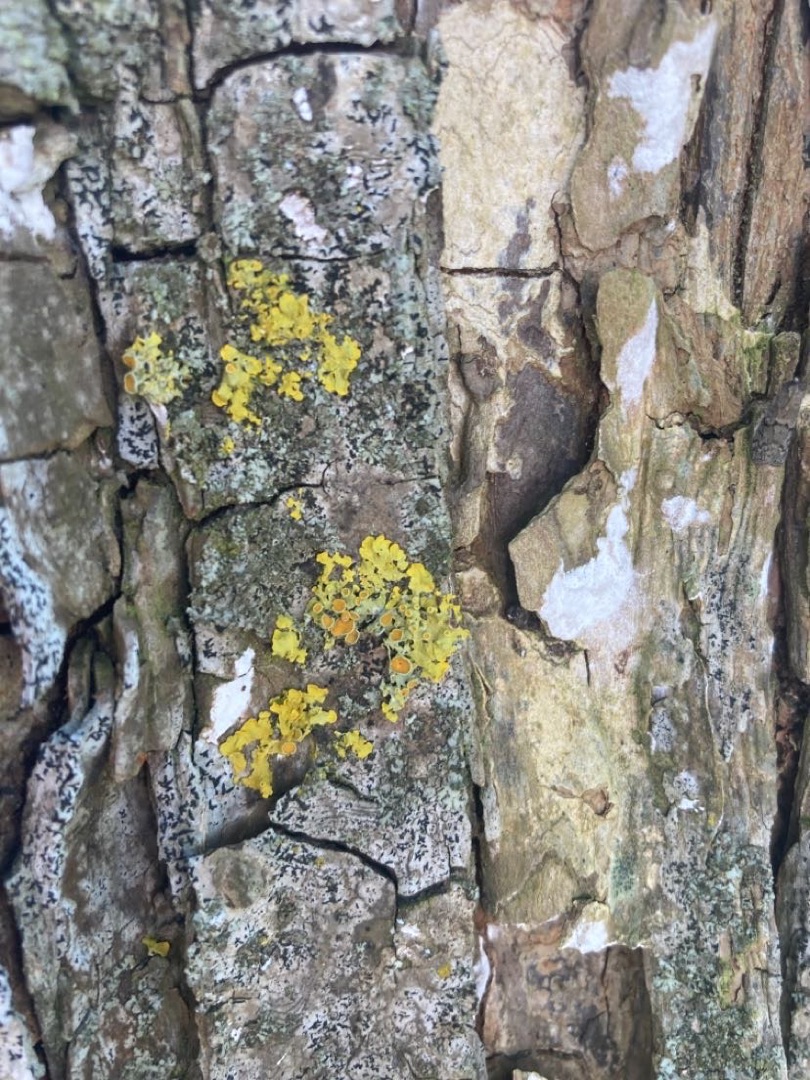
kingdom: Fungi
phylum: Ascomycota
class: Lecanoromycetes
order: Teloschistales
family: Teloschistaceae
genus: Xanthoria
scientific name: Xanthoria parietina
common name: Almindelig væggelav
